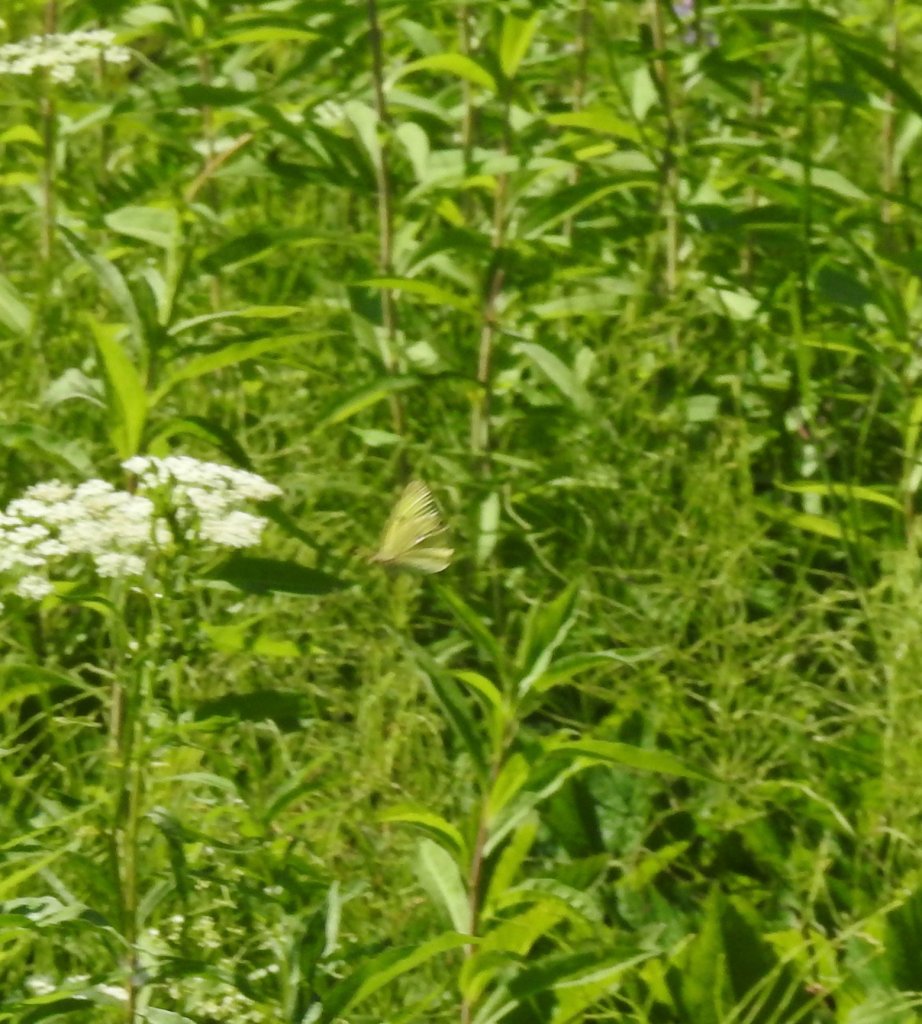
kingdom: Animalia
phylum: Arthropoda
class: Insecta
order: Lepidoptera
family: Pieridae
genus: Colias
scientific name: Colias philodice
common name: Clouded Sulphur
